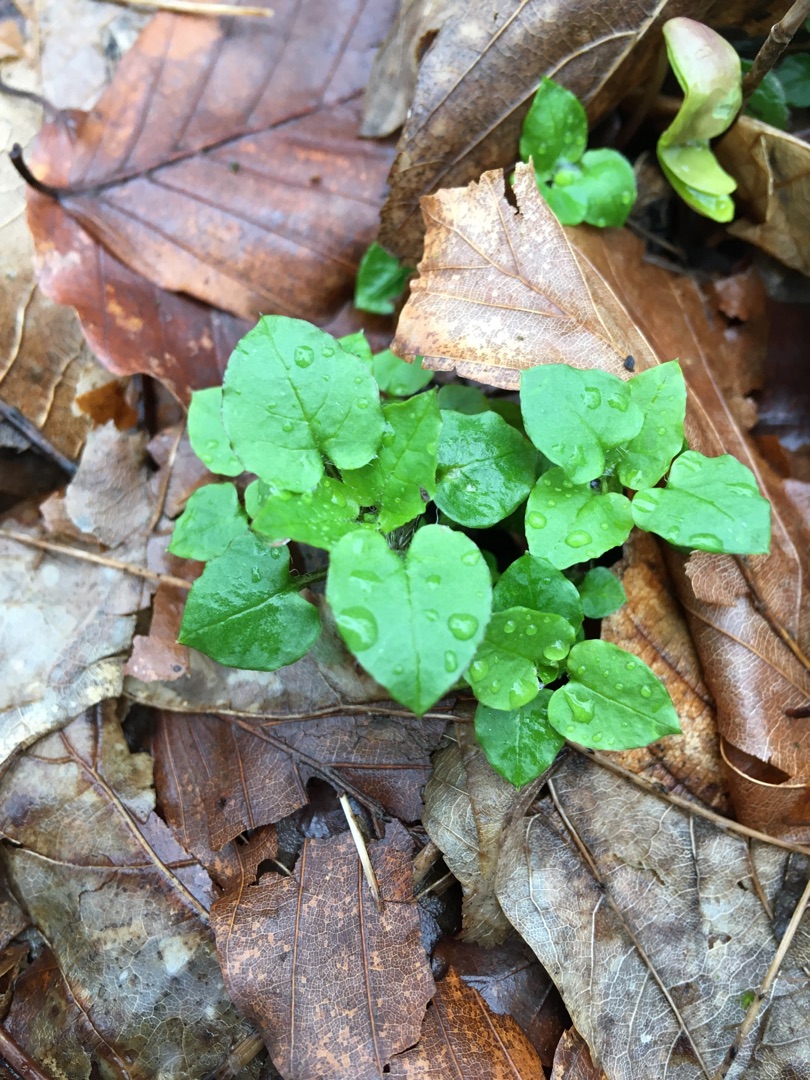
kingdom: Plantae
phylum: Tracheophyta
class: Magnoliopsida
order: Caryophyllales
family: Caryophyllaceae
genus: Stellaria
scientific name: Stellaria media
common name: Almindelig fuglegræs
